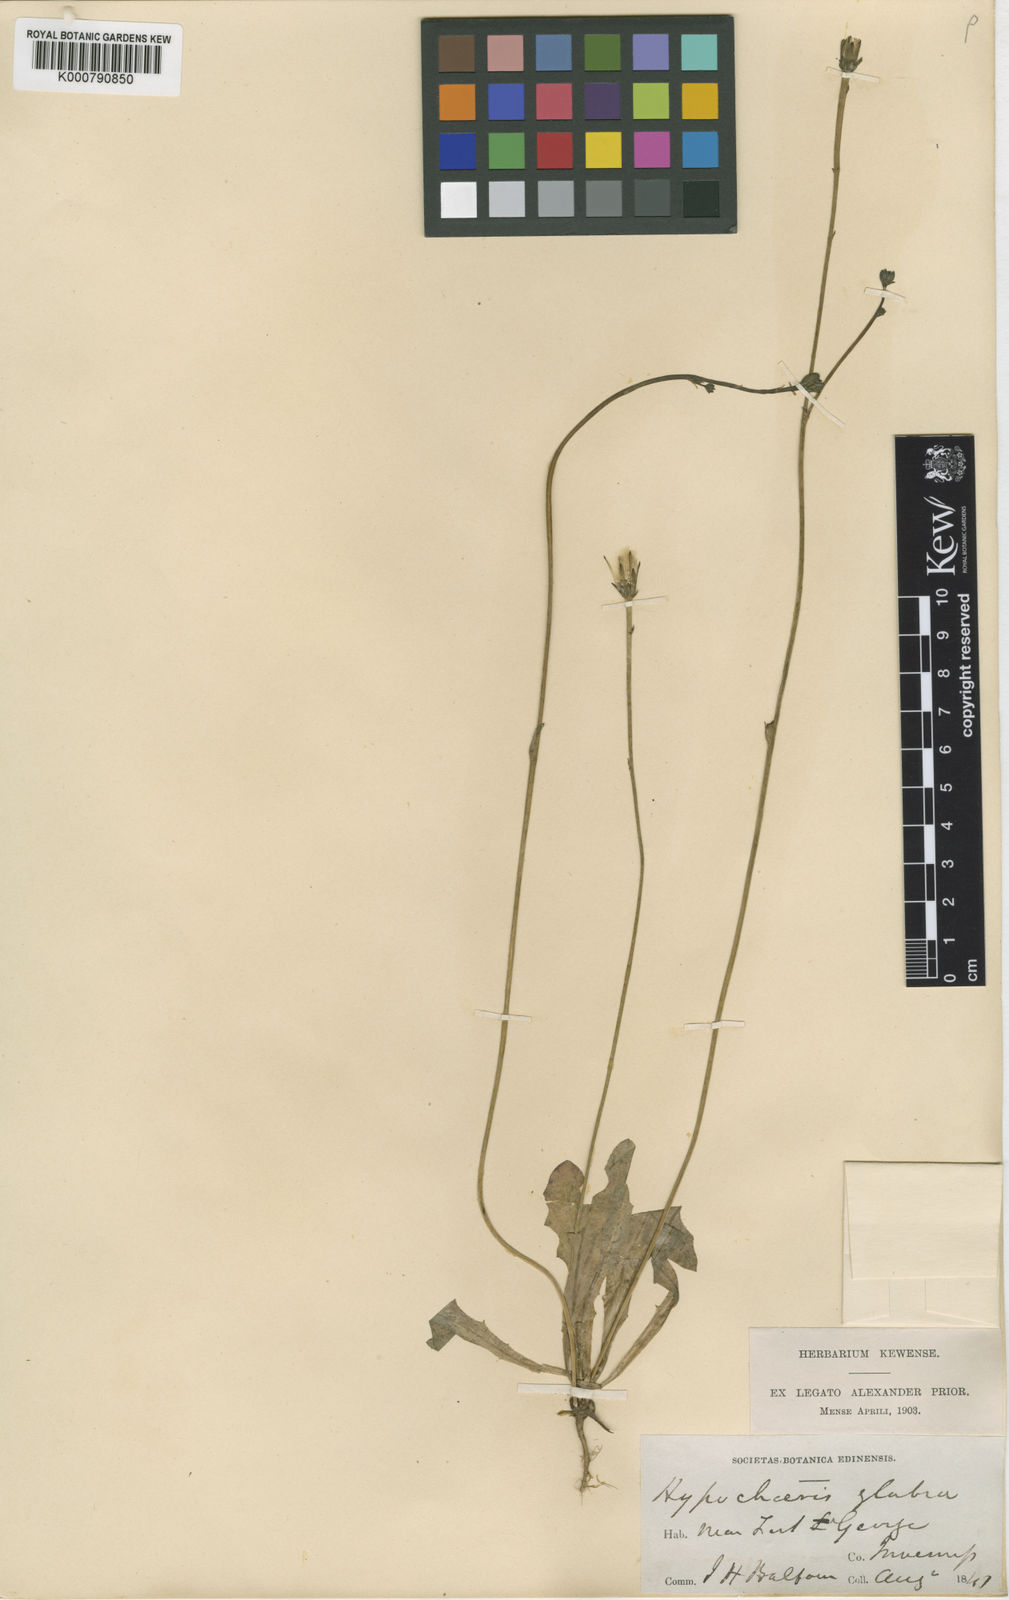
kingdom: Plantae
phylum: Tracheophyta
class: Magnoliopsida
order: Asterales
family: Asteraceae
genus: Hypochaeris
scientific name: Hypochaeris glabra
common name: Smooth catsear
